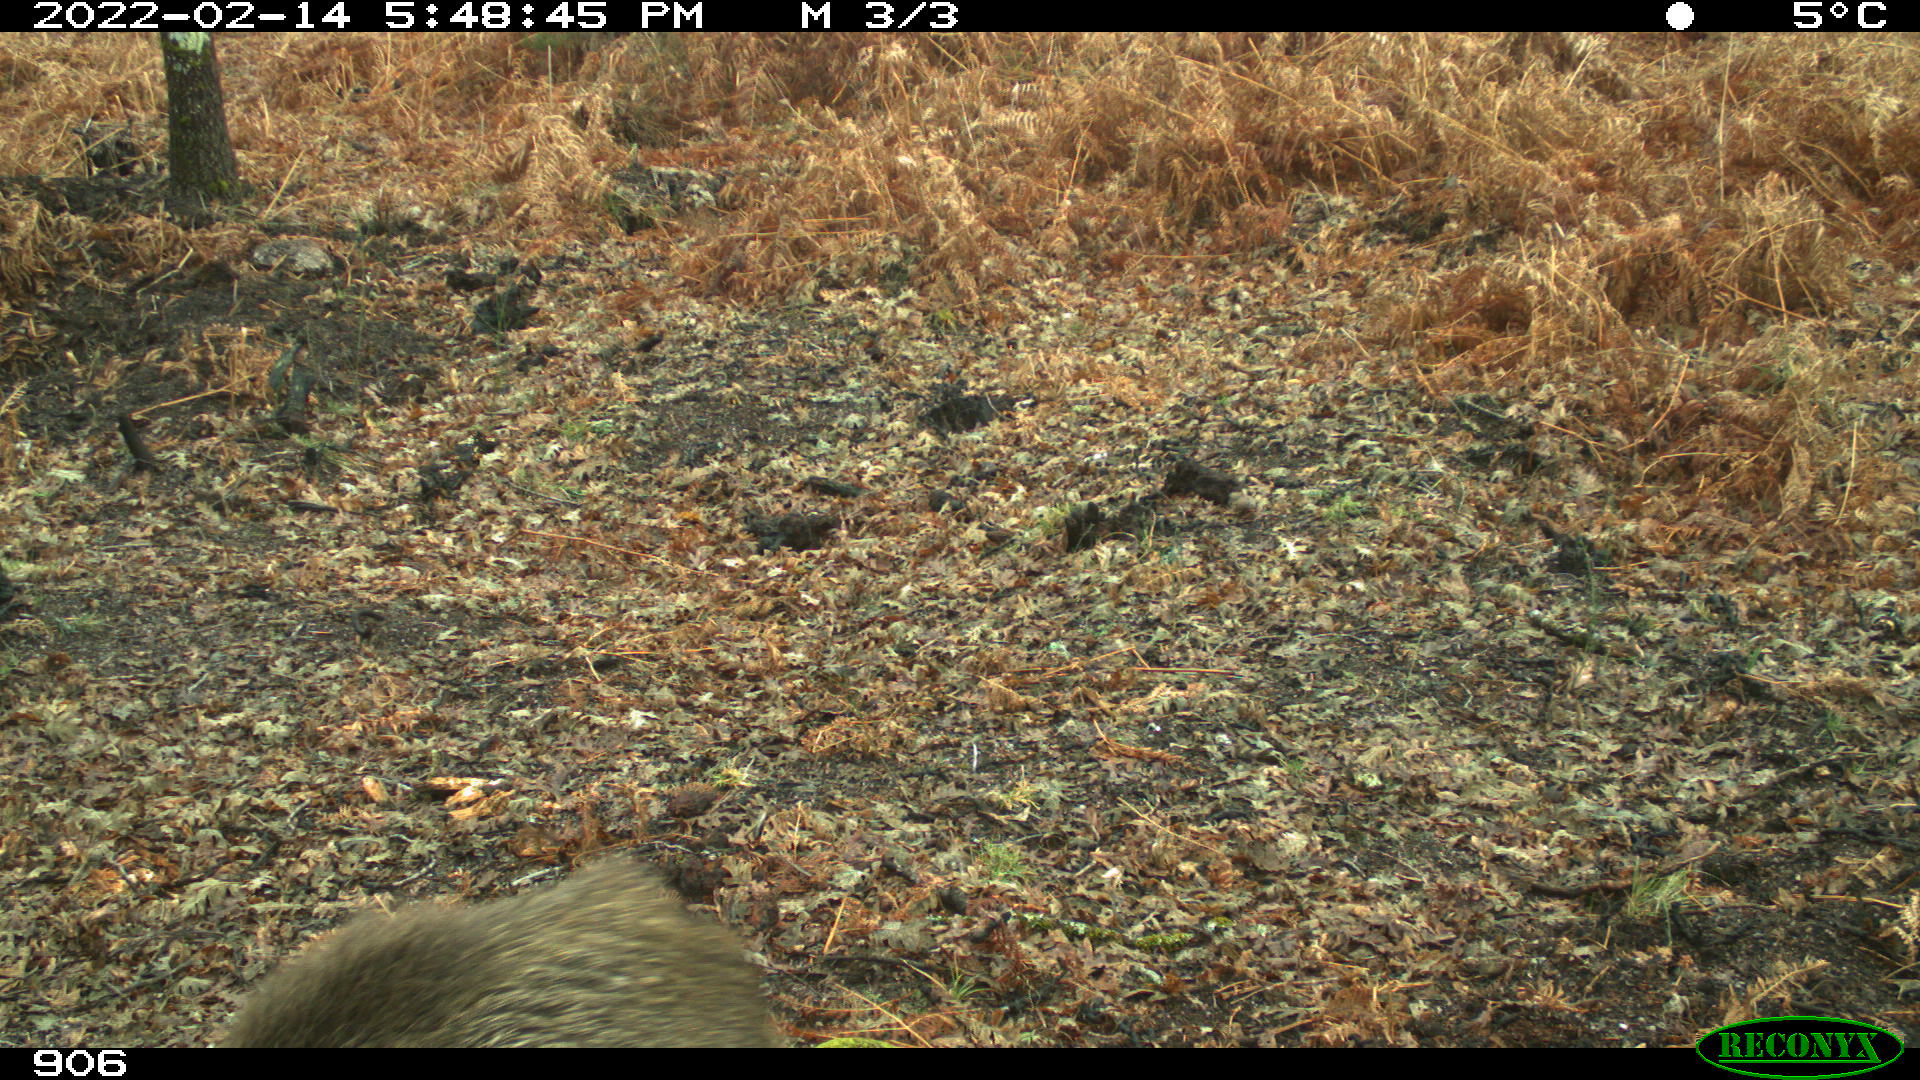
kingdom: Animalia
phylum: Chordata
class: Mammalia
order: Artiodactyla
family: Suidae
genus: Sus
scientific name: Sus scrofa
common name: Wild boar
